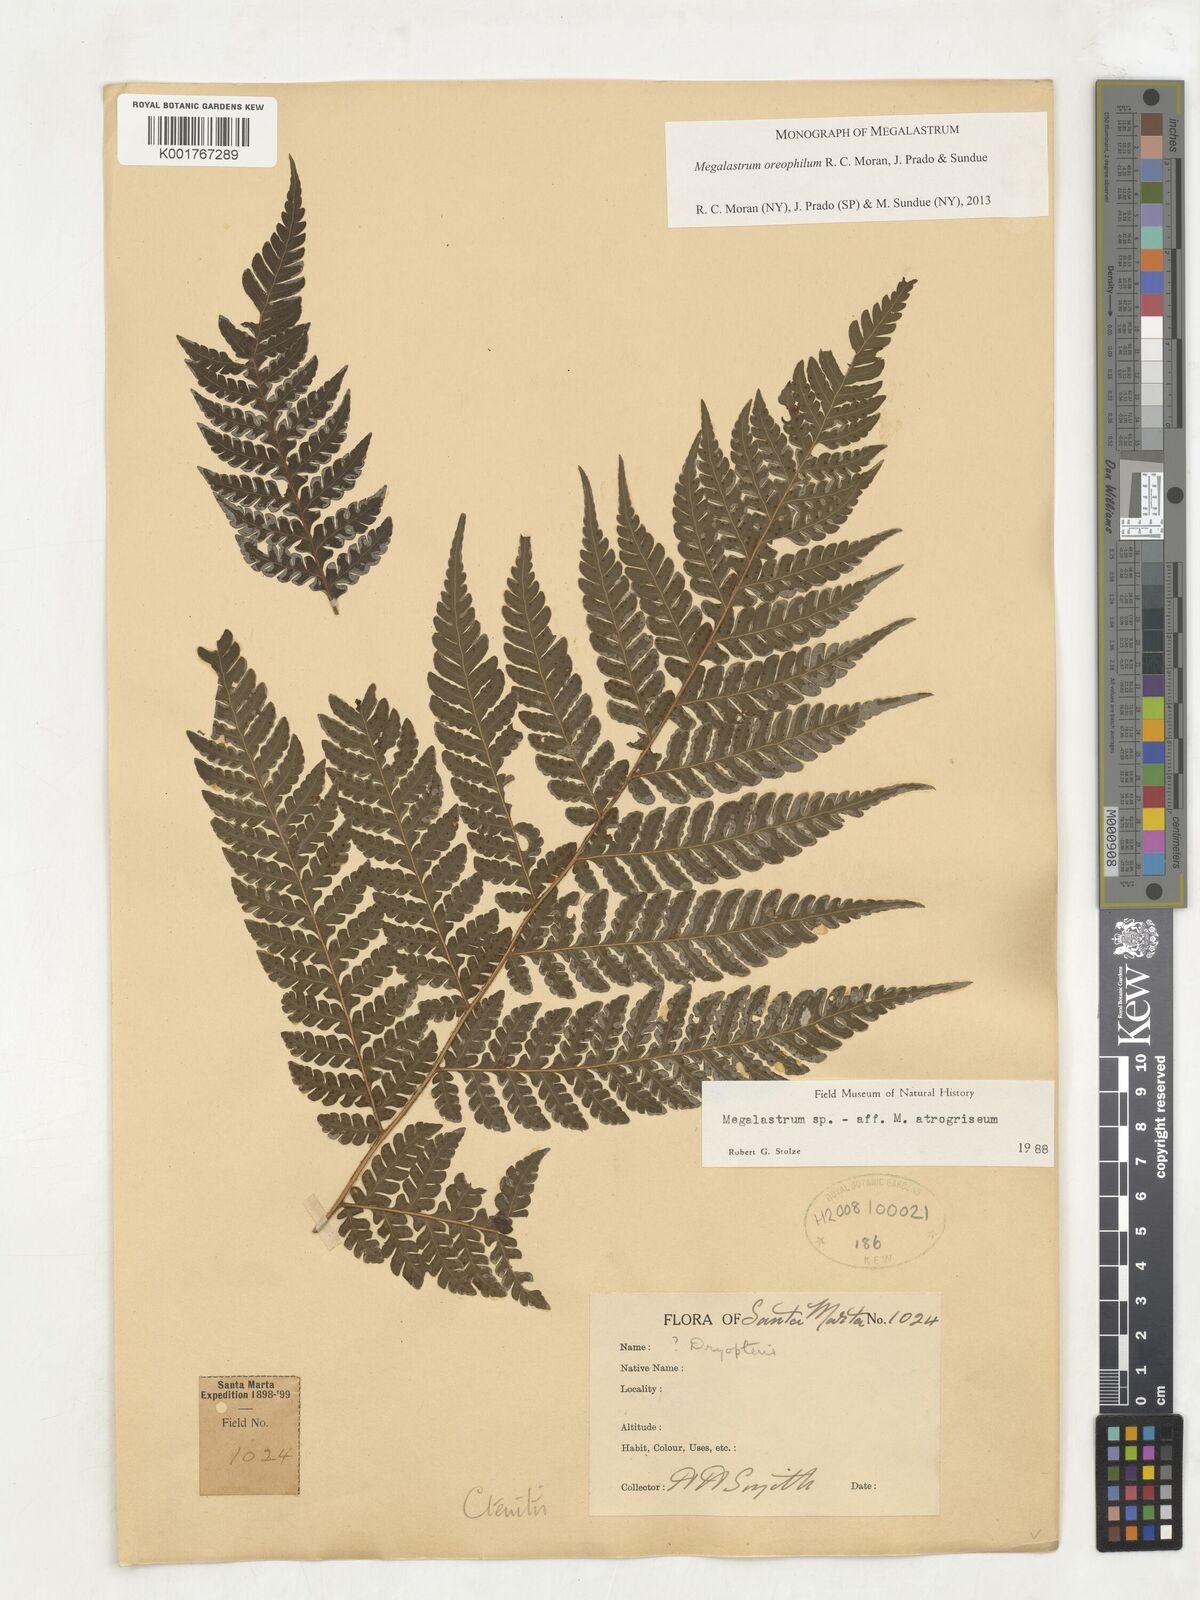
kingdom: Plantae
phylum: Tracheophyta
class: Polypodiopsida
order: Polypodiales
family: Dryopteridaceae
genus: Megalastrum
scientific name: Megalastrum oreophilum
